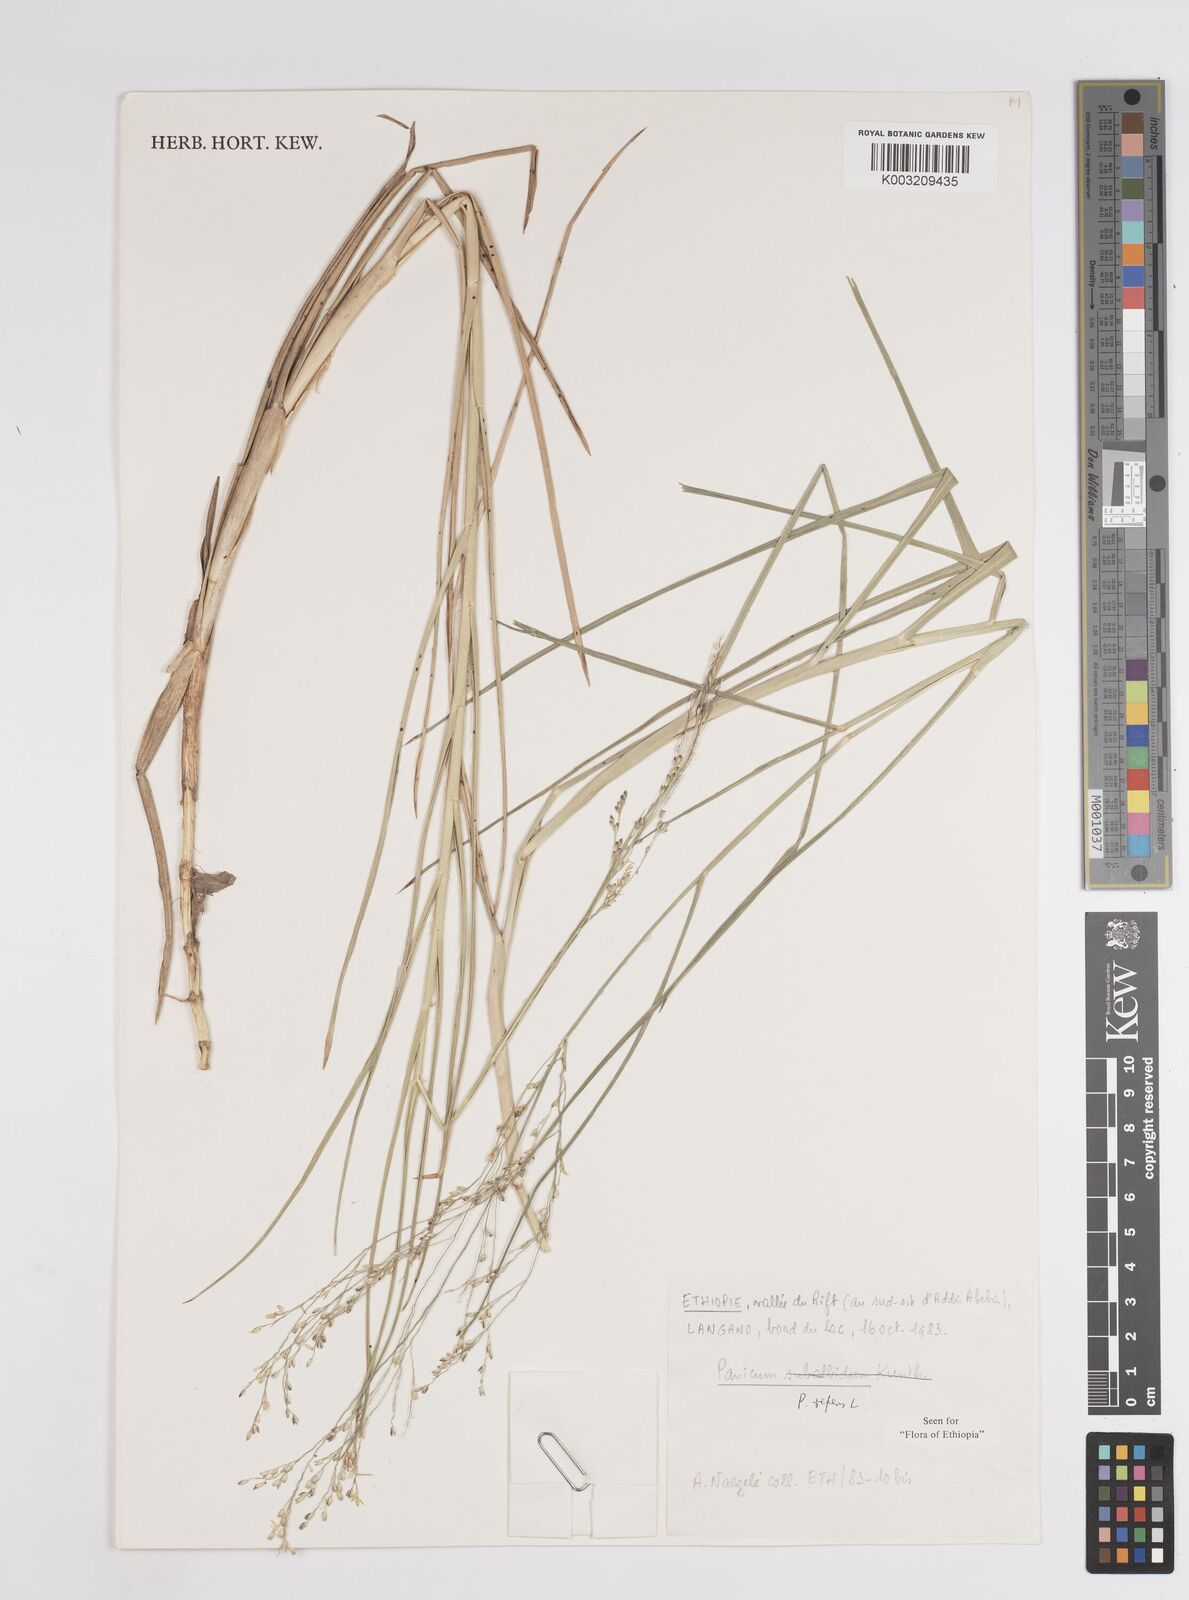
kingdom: Plantae
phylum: Tracheophyta
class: Liliopsida
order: Poales
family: Poaceae
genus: Panicum
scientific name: Panicum repens
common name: Torpedo grass
